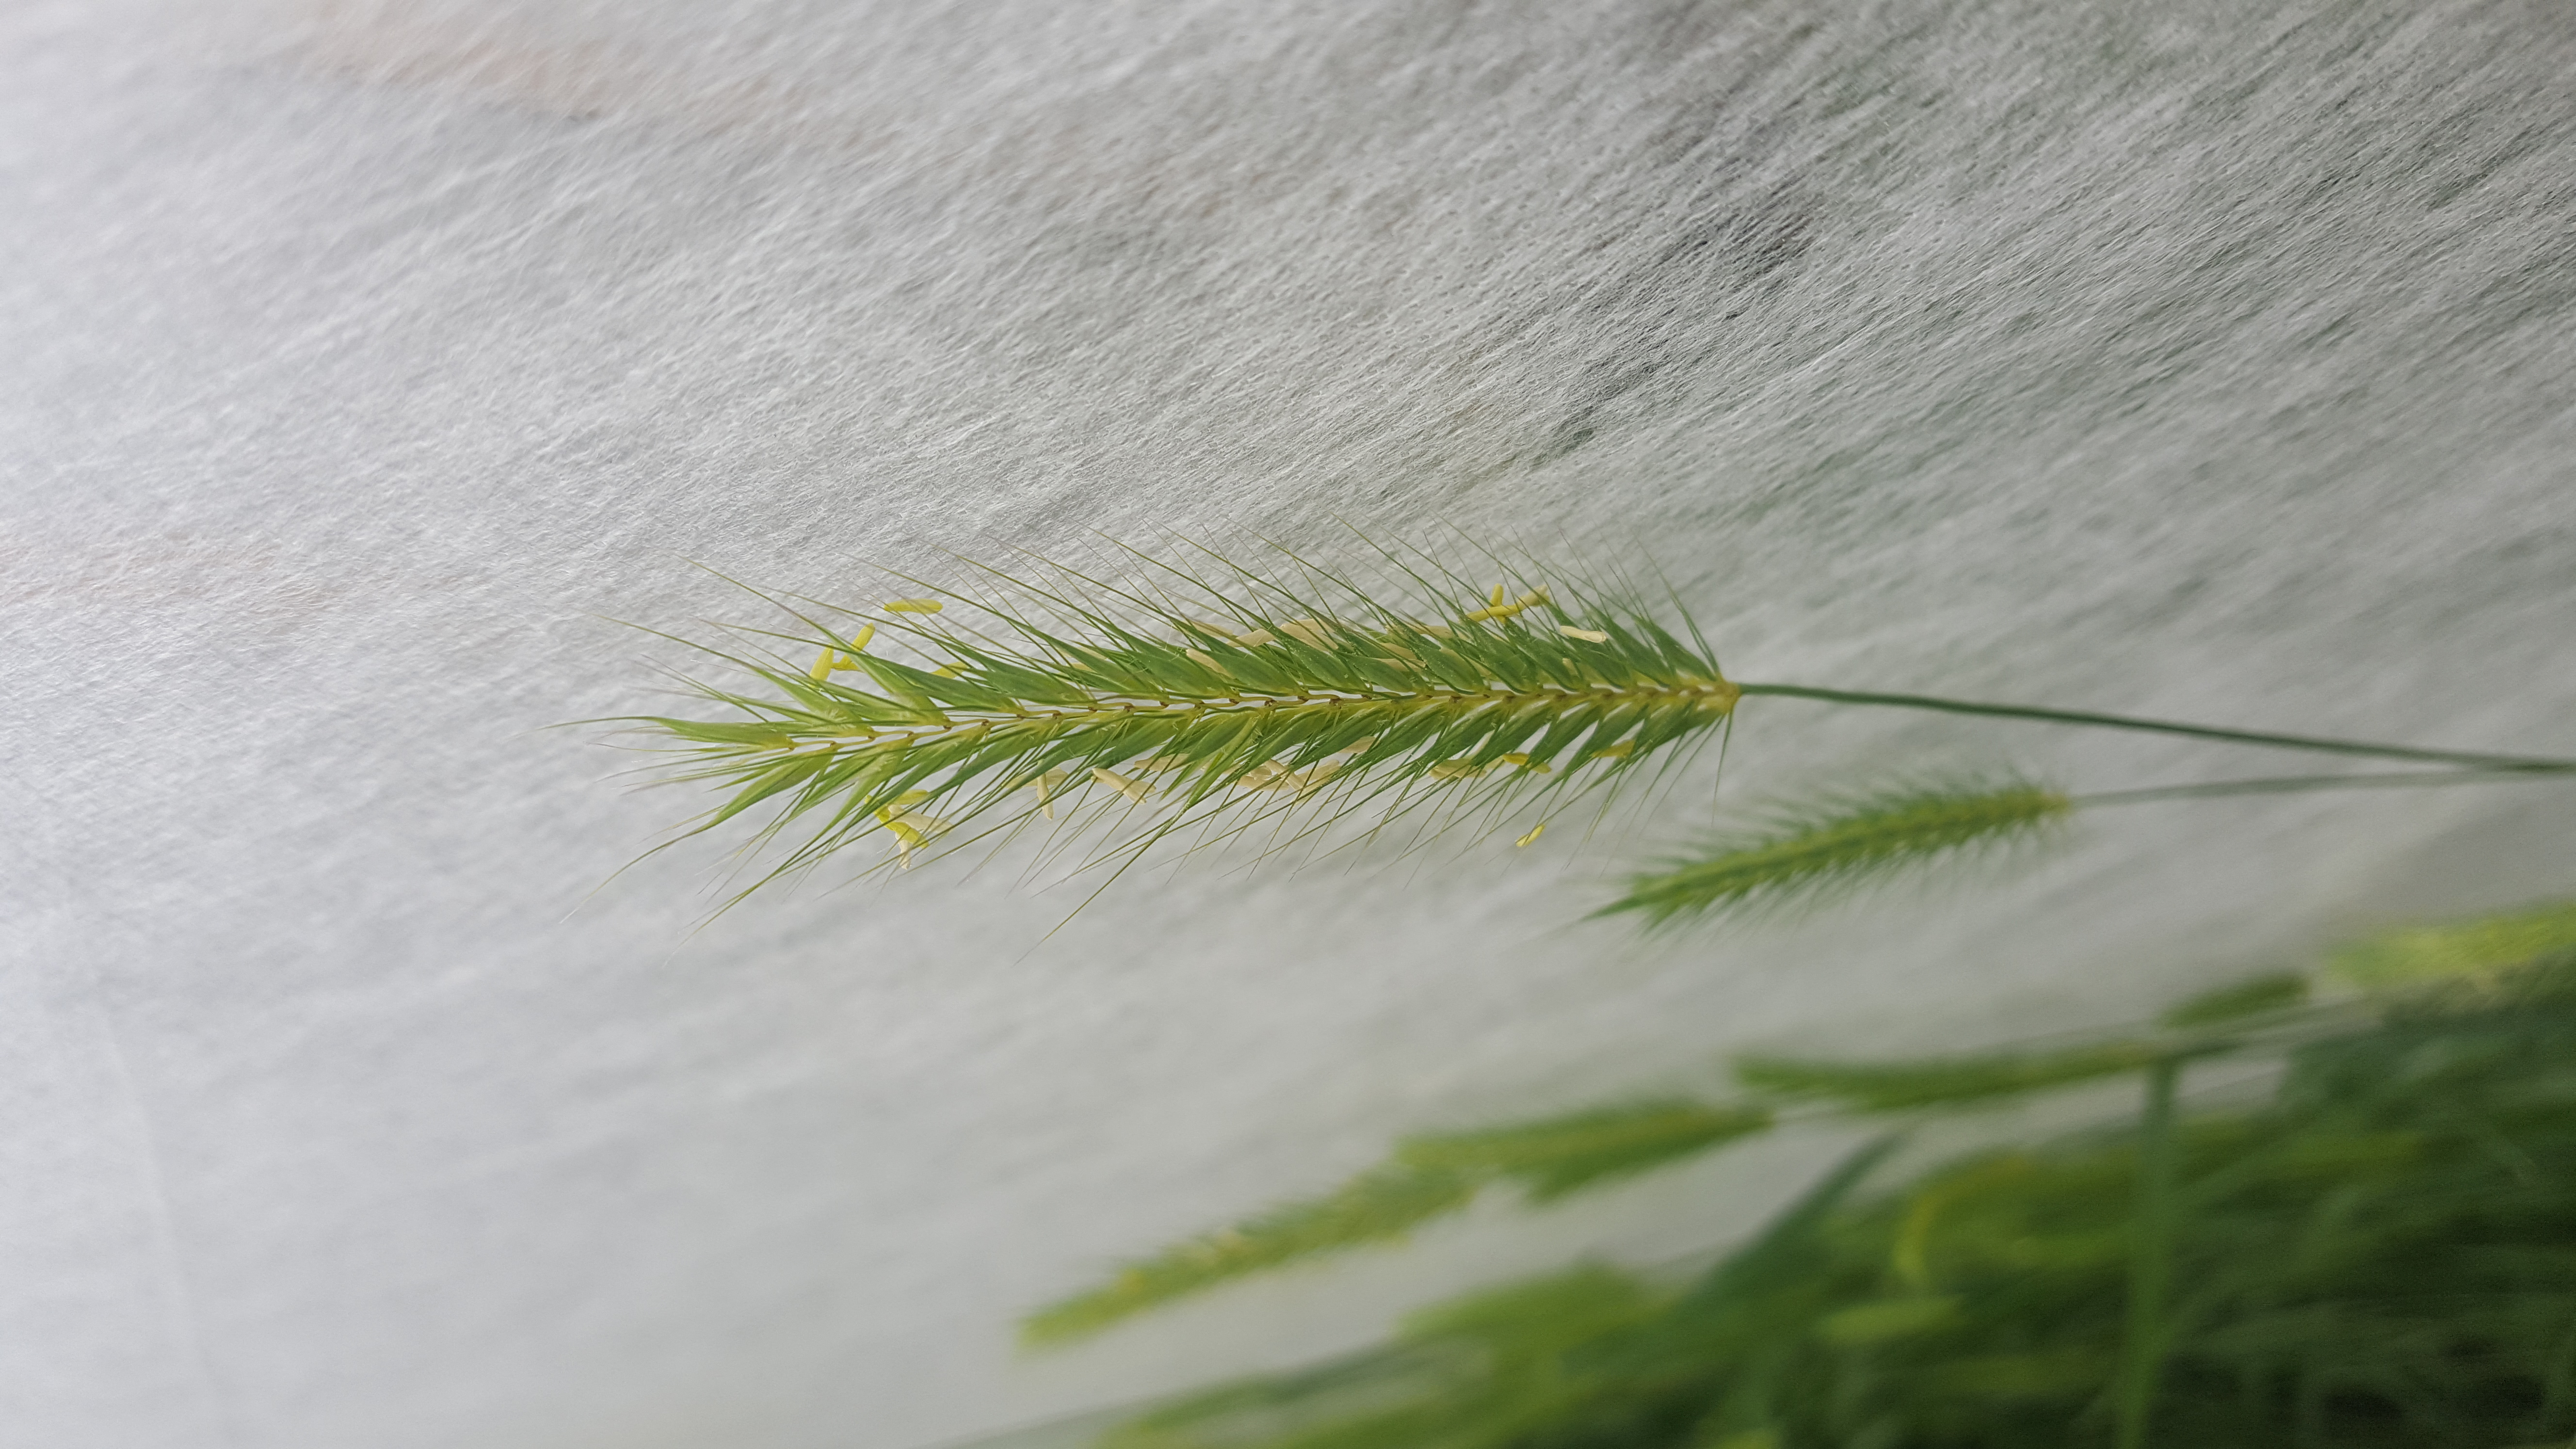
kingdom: Plantae
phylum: Tracheophyta
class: Liliopsida
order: Poales
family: Poaceae
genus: Hordeum
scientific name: Hordeum secalinum
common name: Meadow barley
